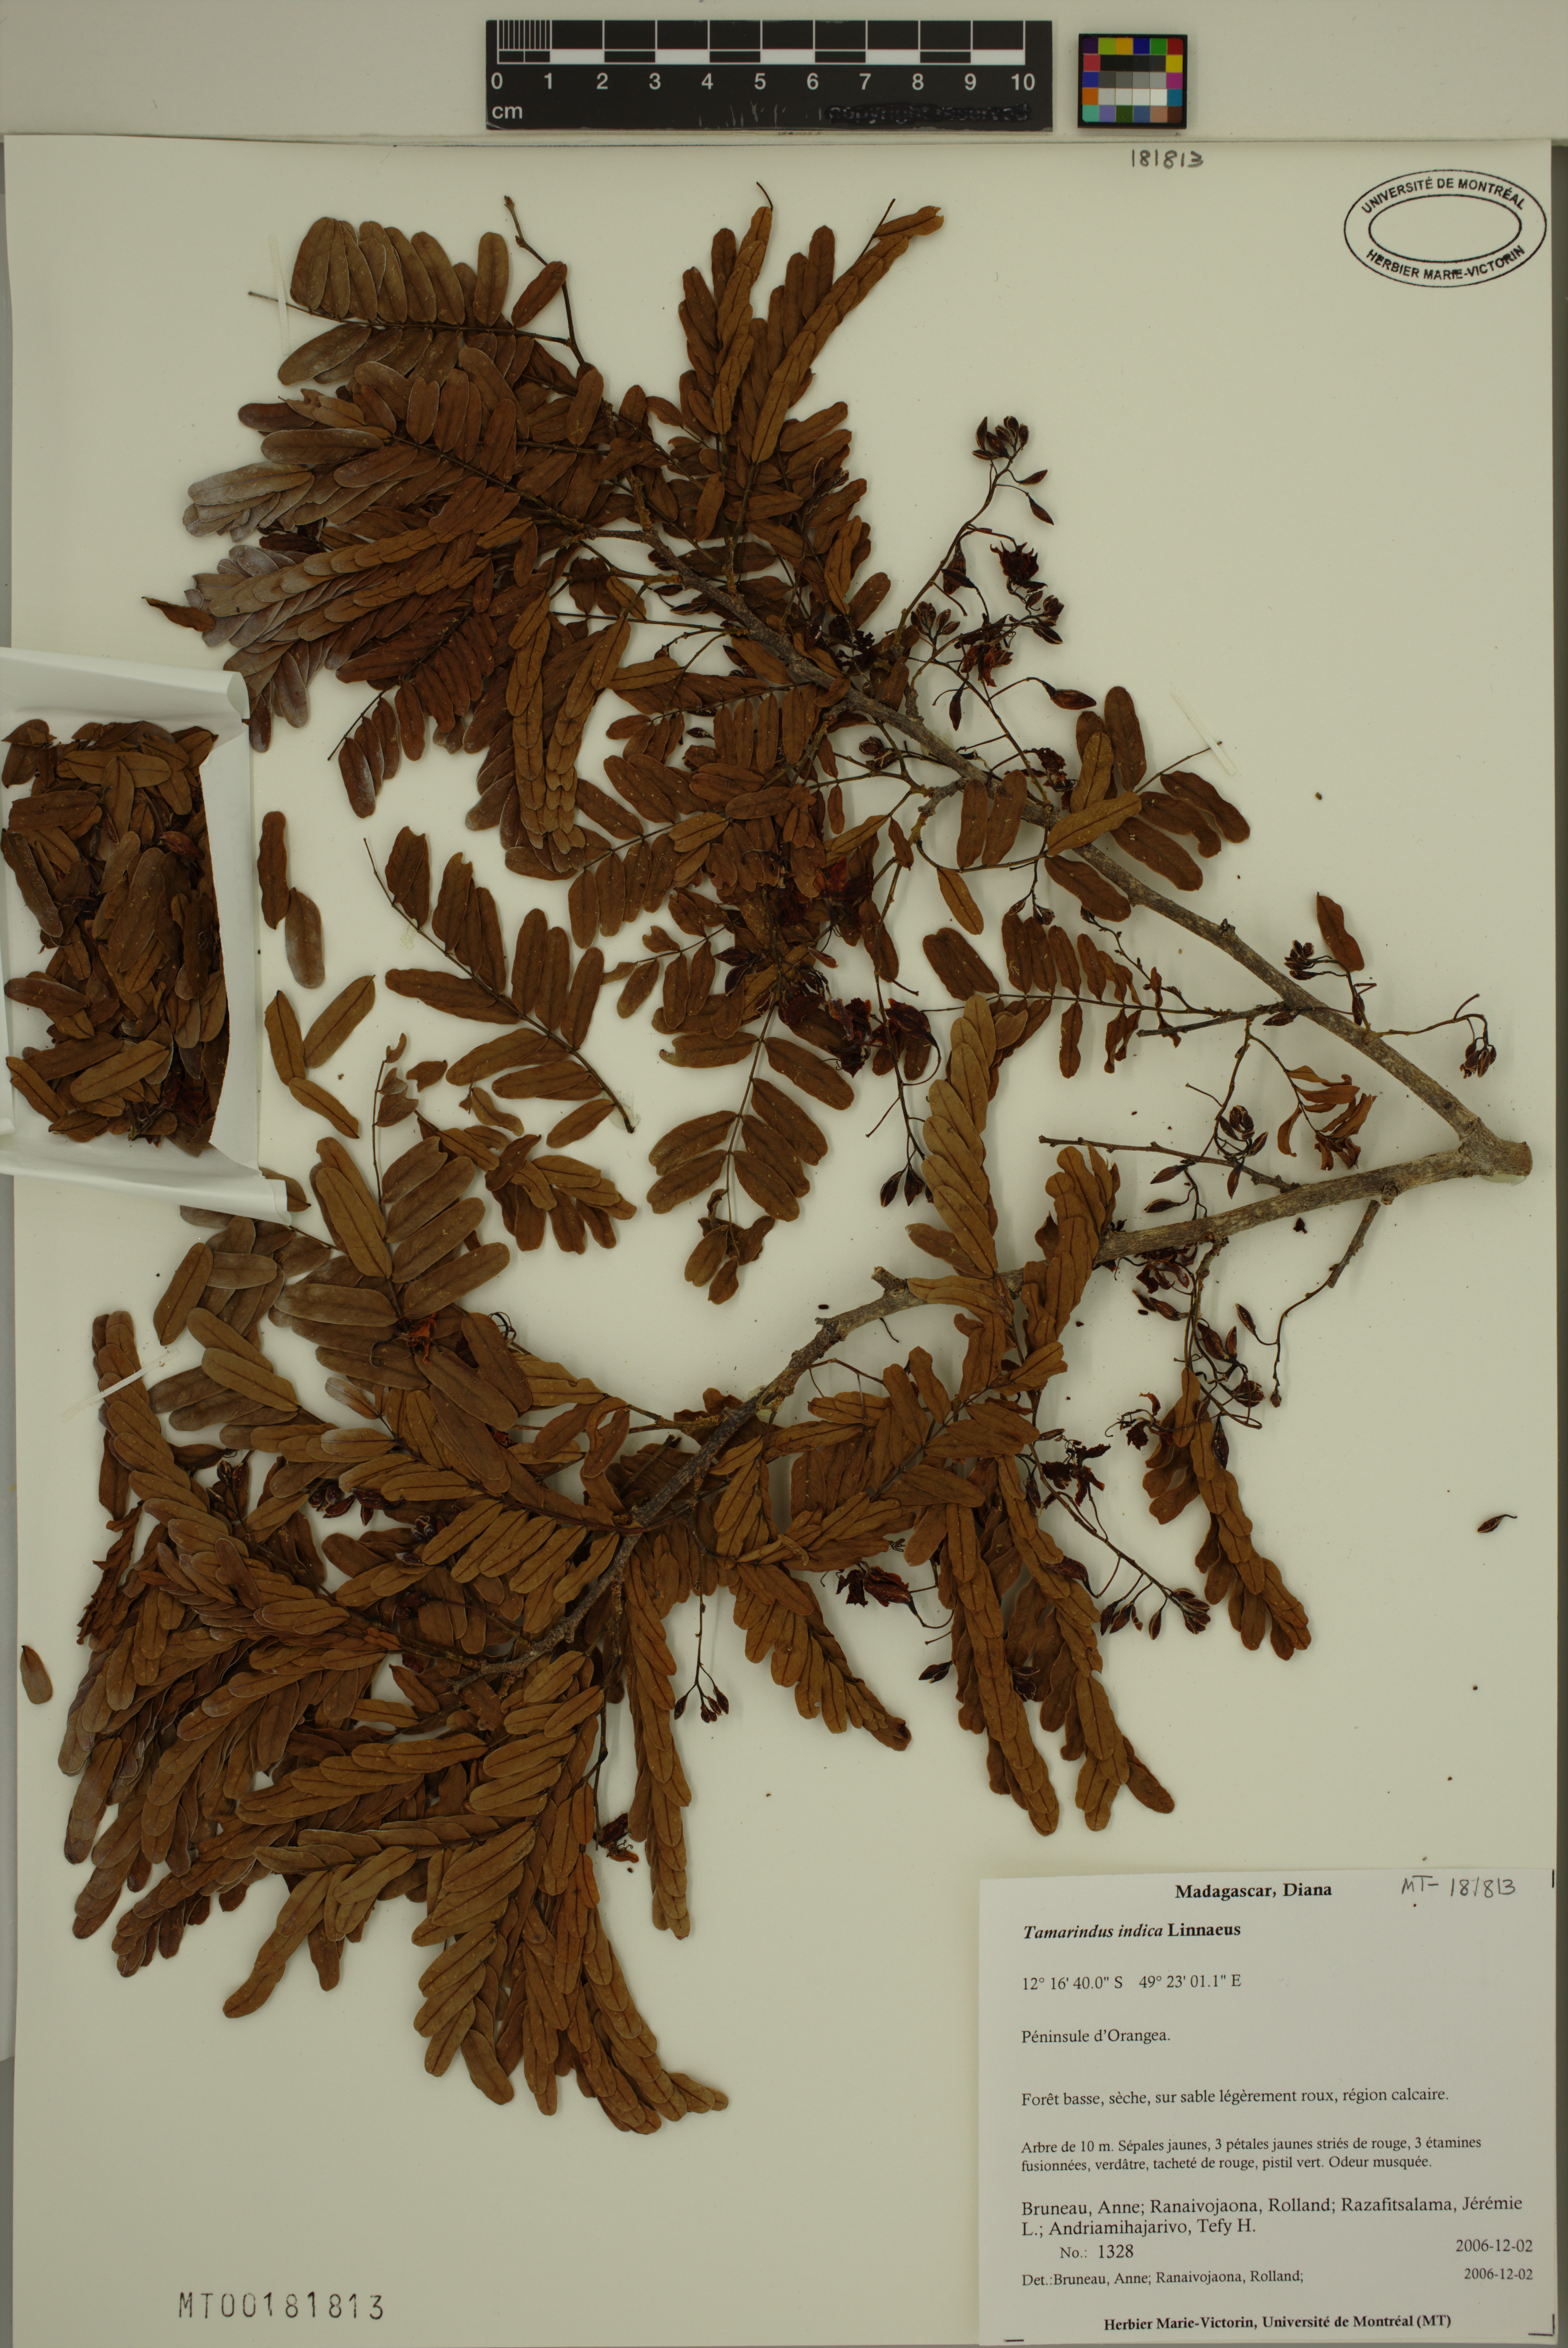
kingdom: Plantae
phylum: Tracheophyta
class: Magnoliopsida
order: Fabales
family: Fabaceae
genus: Tamarindus
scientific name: Tamarindus indica
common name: Tamarind
